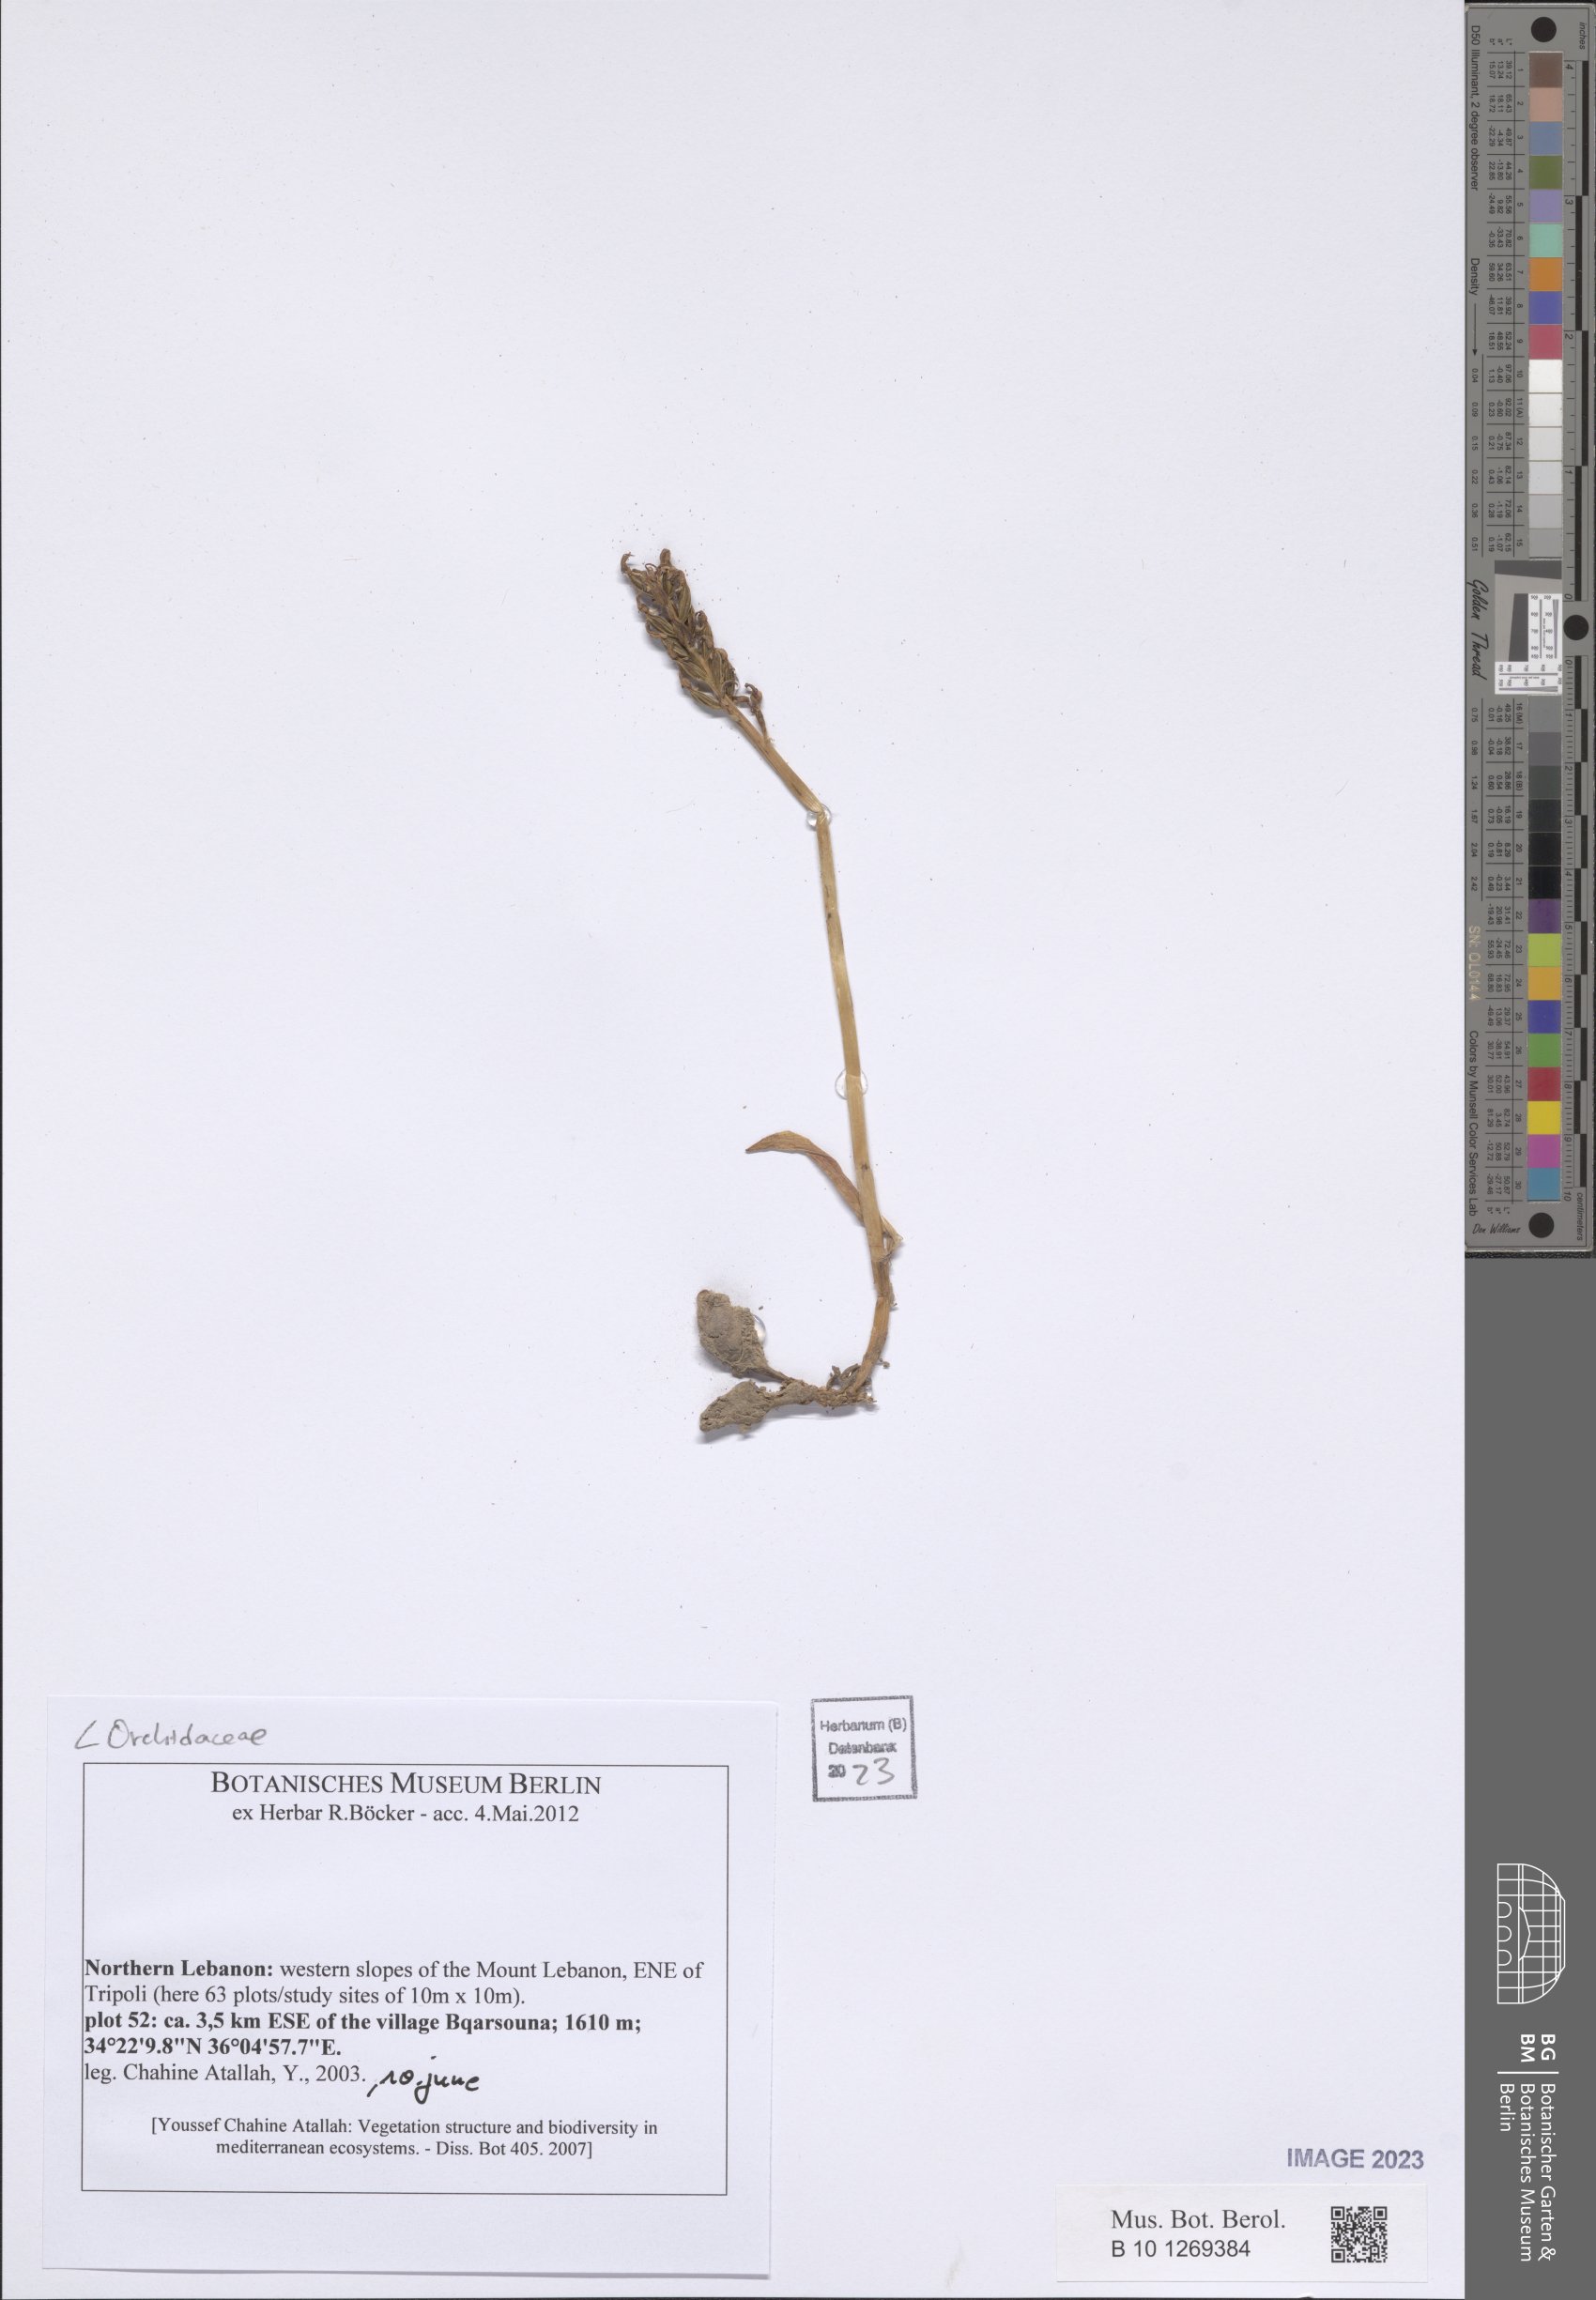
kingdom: Plantae
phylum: Tracheophyta
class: Liliopsida
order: Asparagales
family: Orchidaceae
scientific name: Orchidaceae
